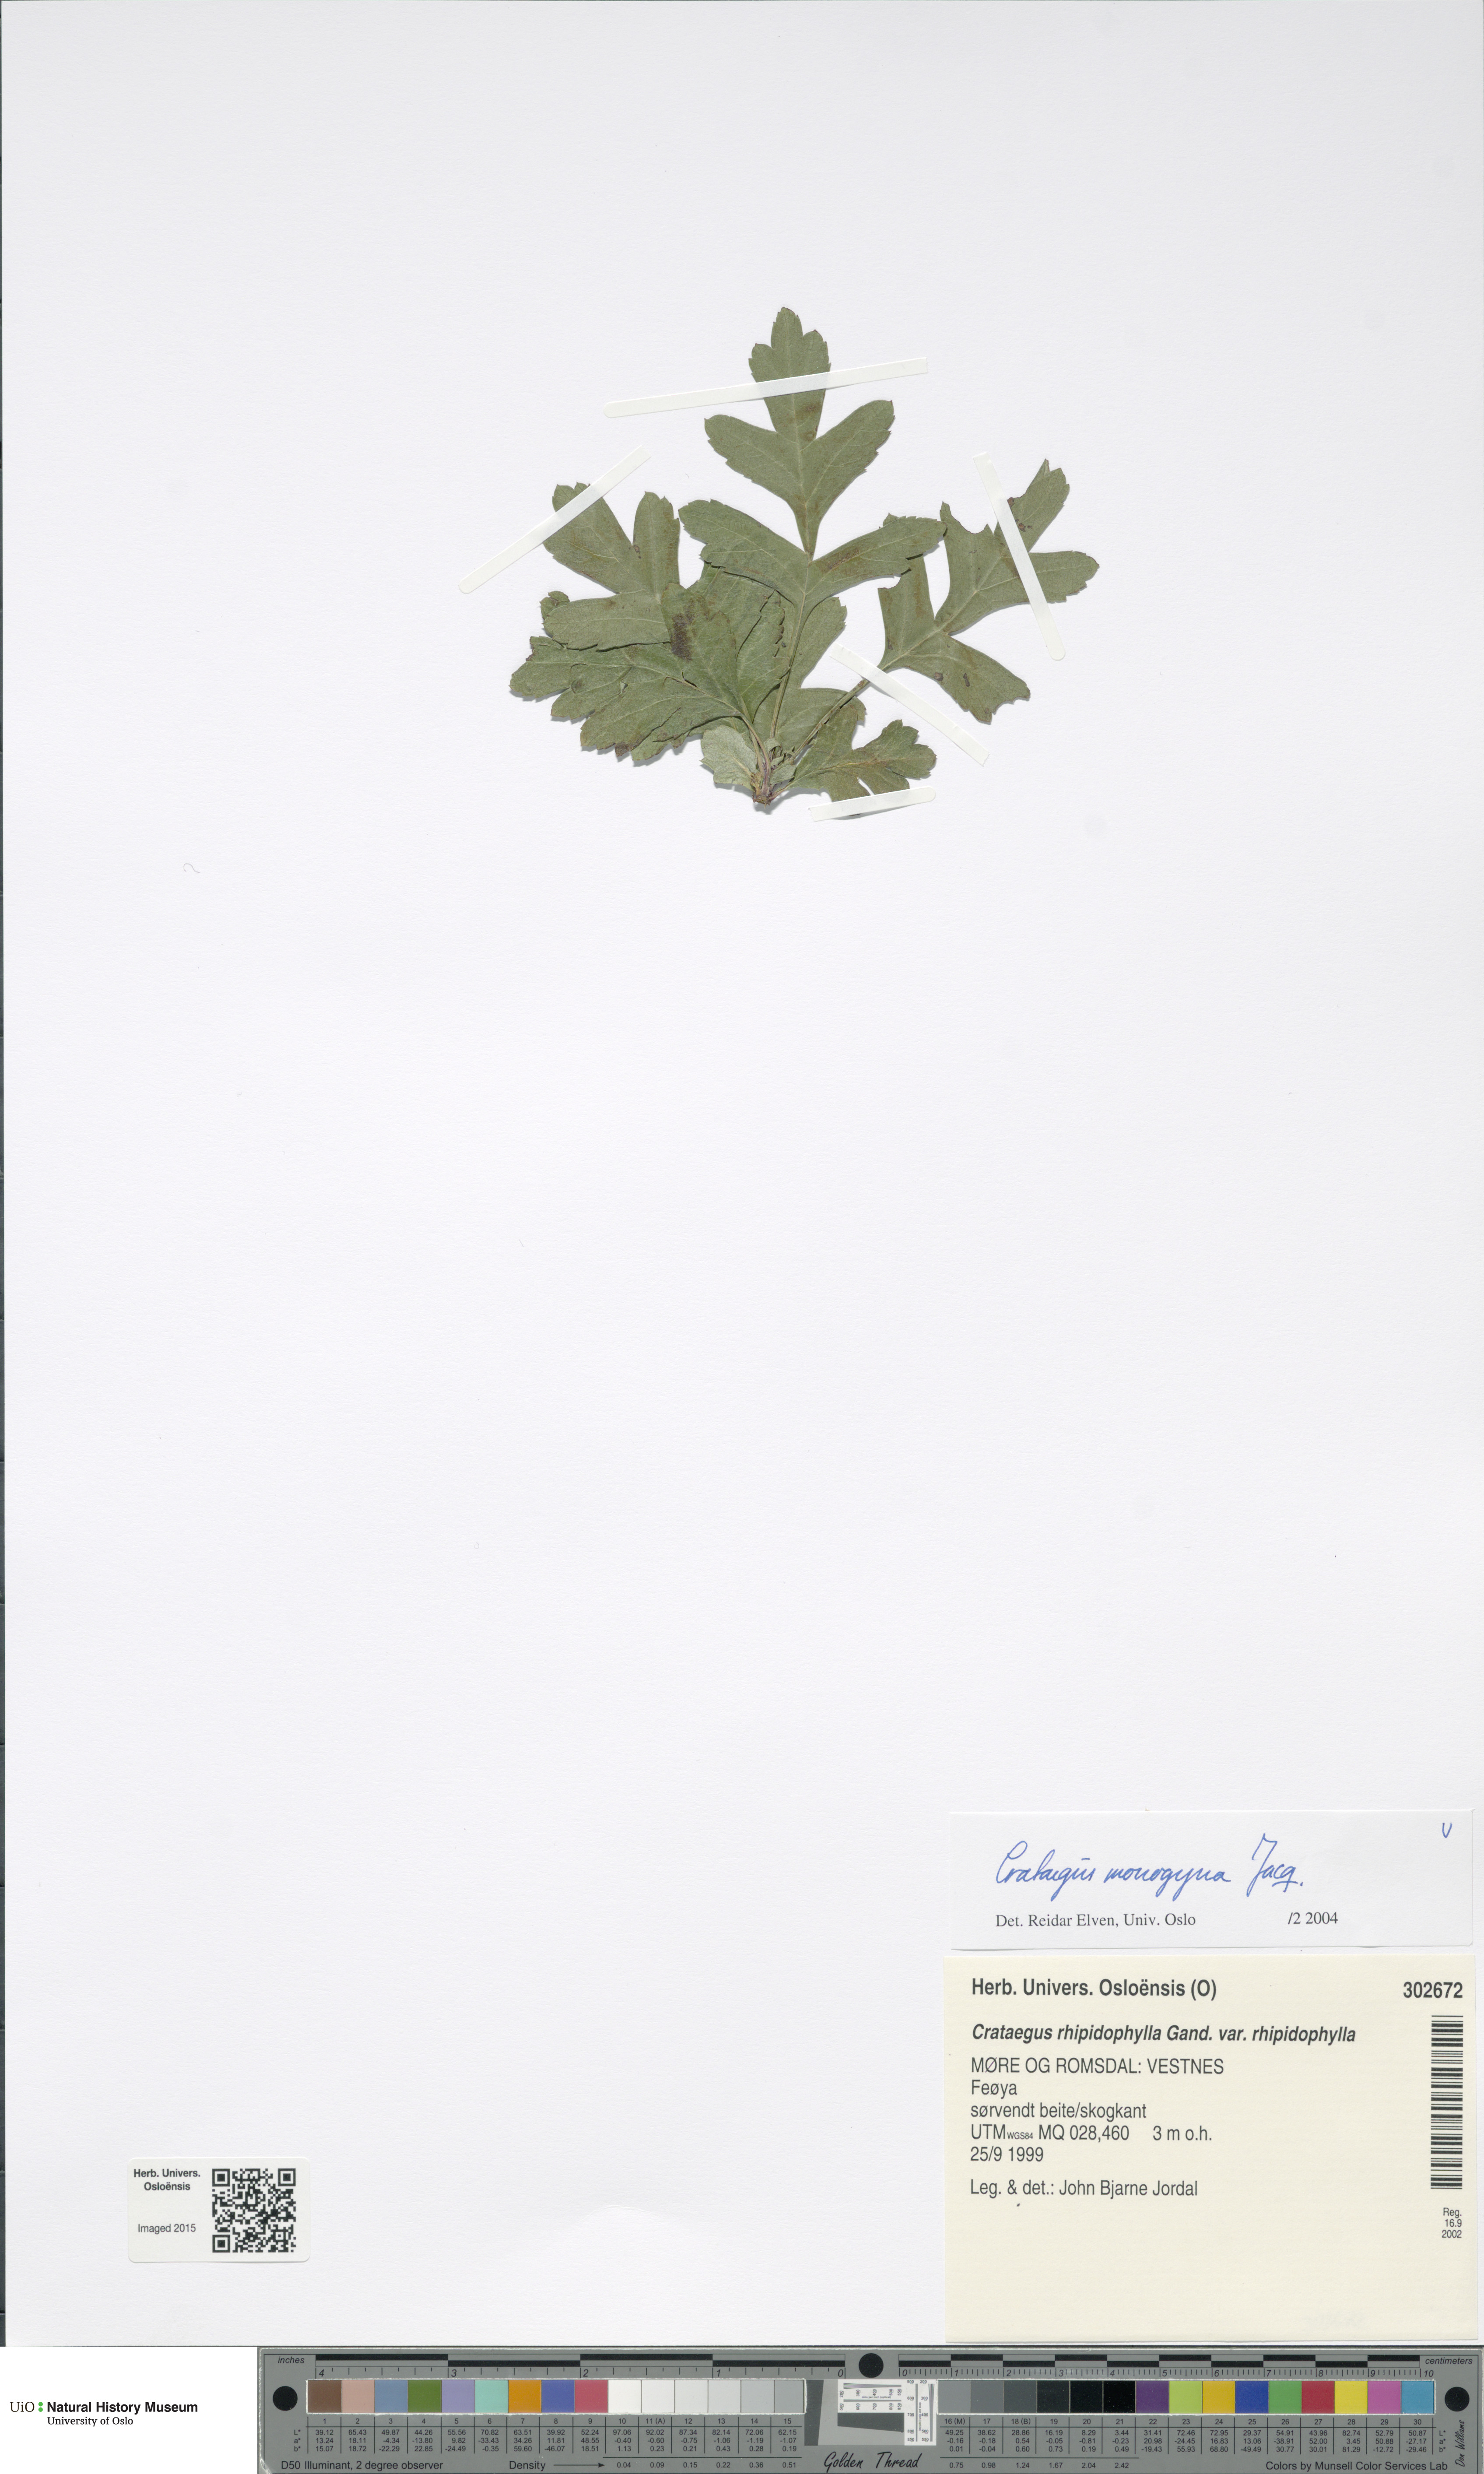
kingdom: Plantae
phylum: Tracheophyta
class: Magnoliopsida
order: Rosales
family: Rosaceae
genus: Crataegus
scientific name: Crataegus monogyna
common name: Hawthorn
